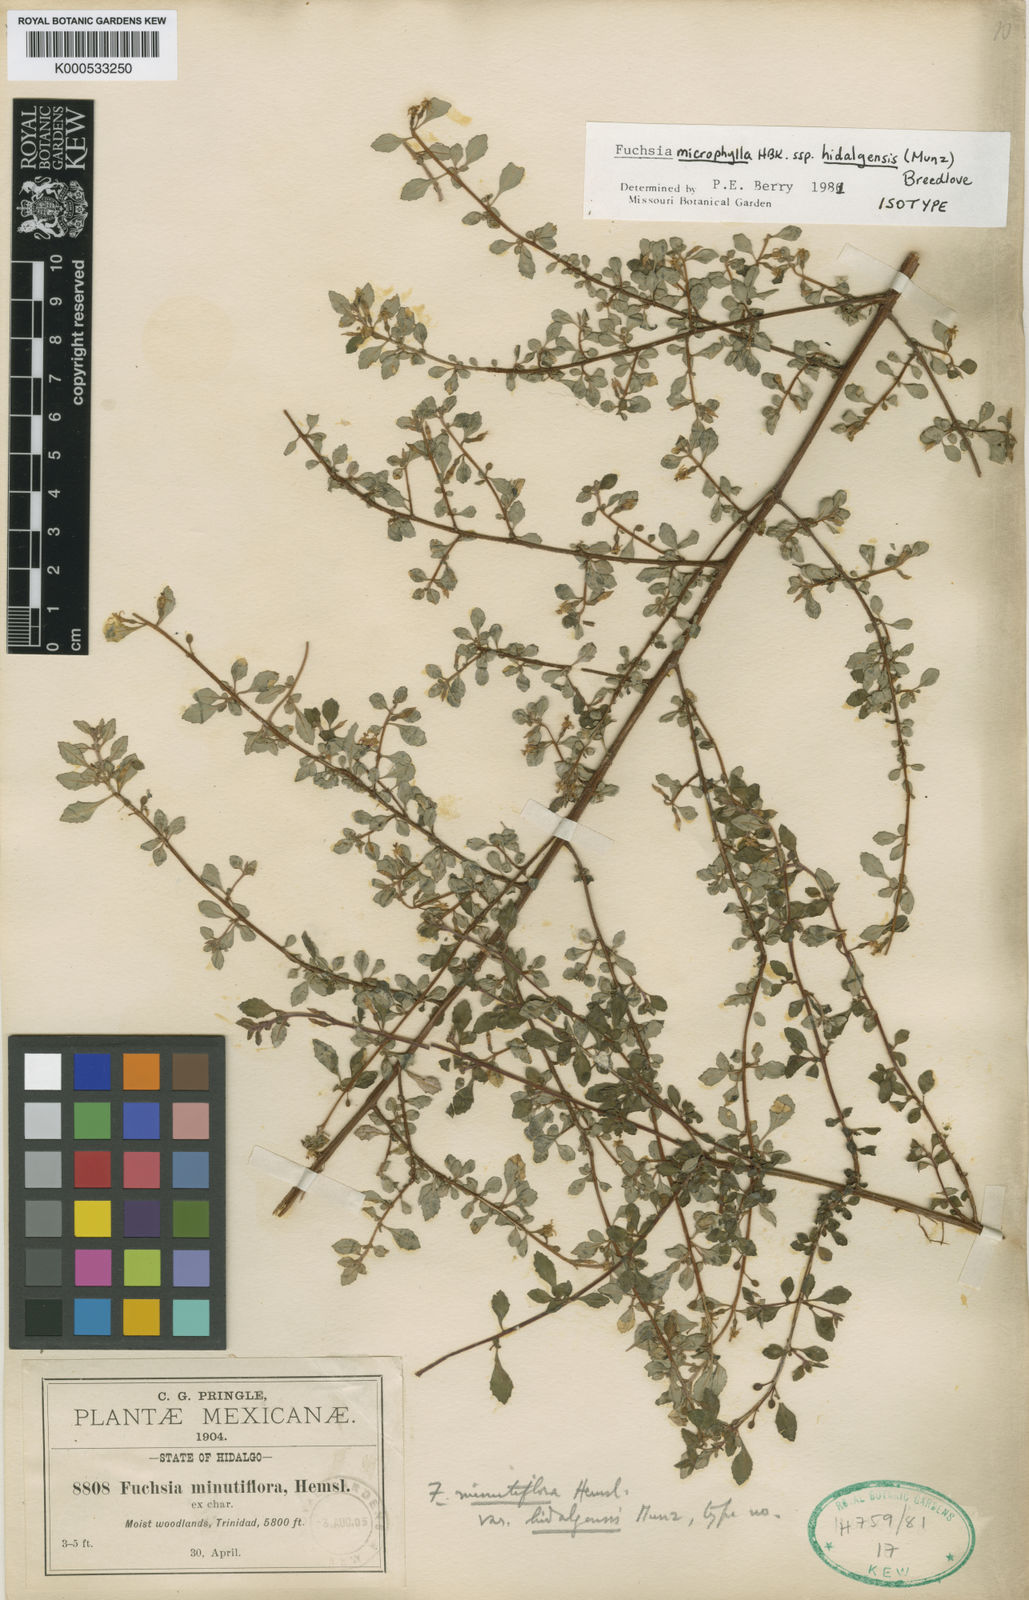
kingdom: Plantae
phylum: Tracheophyta
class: Magnoliopsida
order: Myrtales
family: Onagraceae
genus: Fuchsia
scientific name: Fuchsia microphylla
